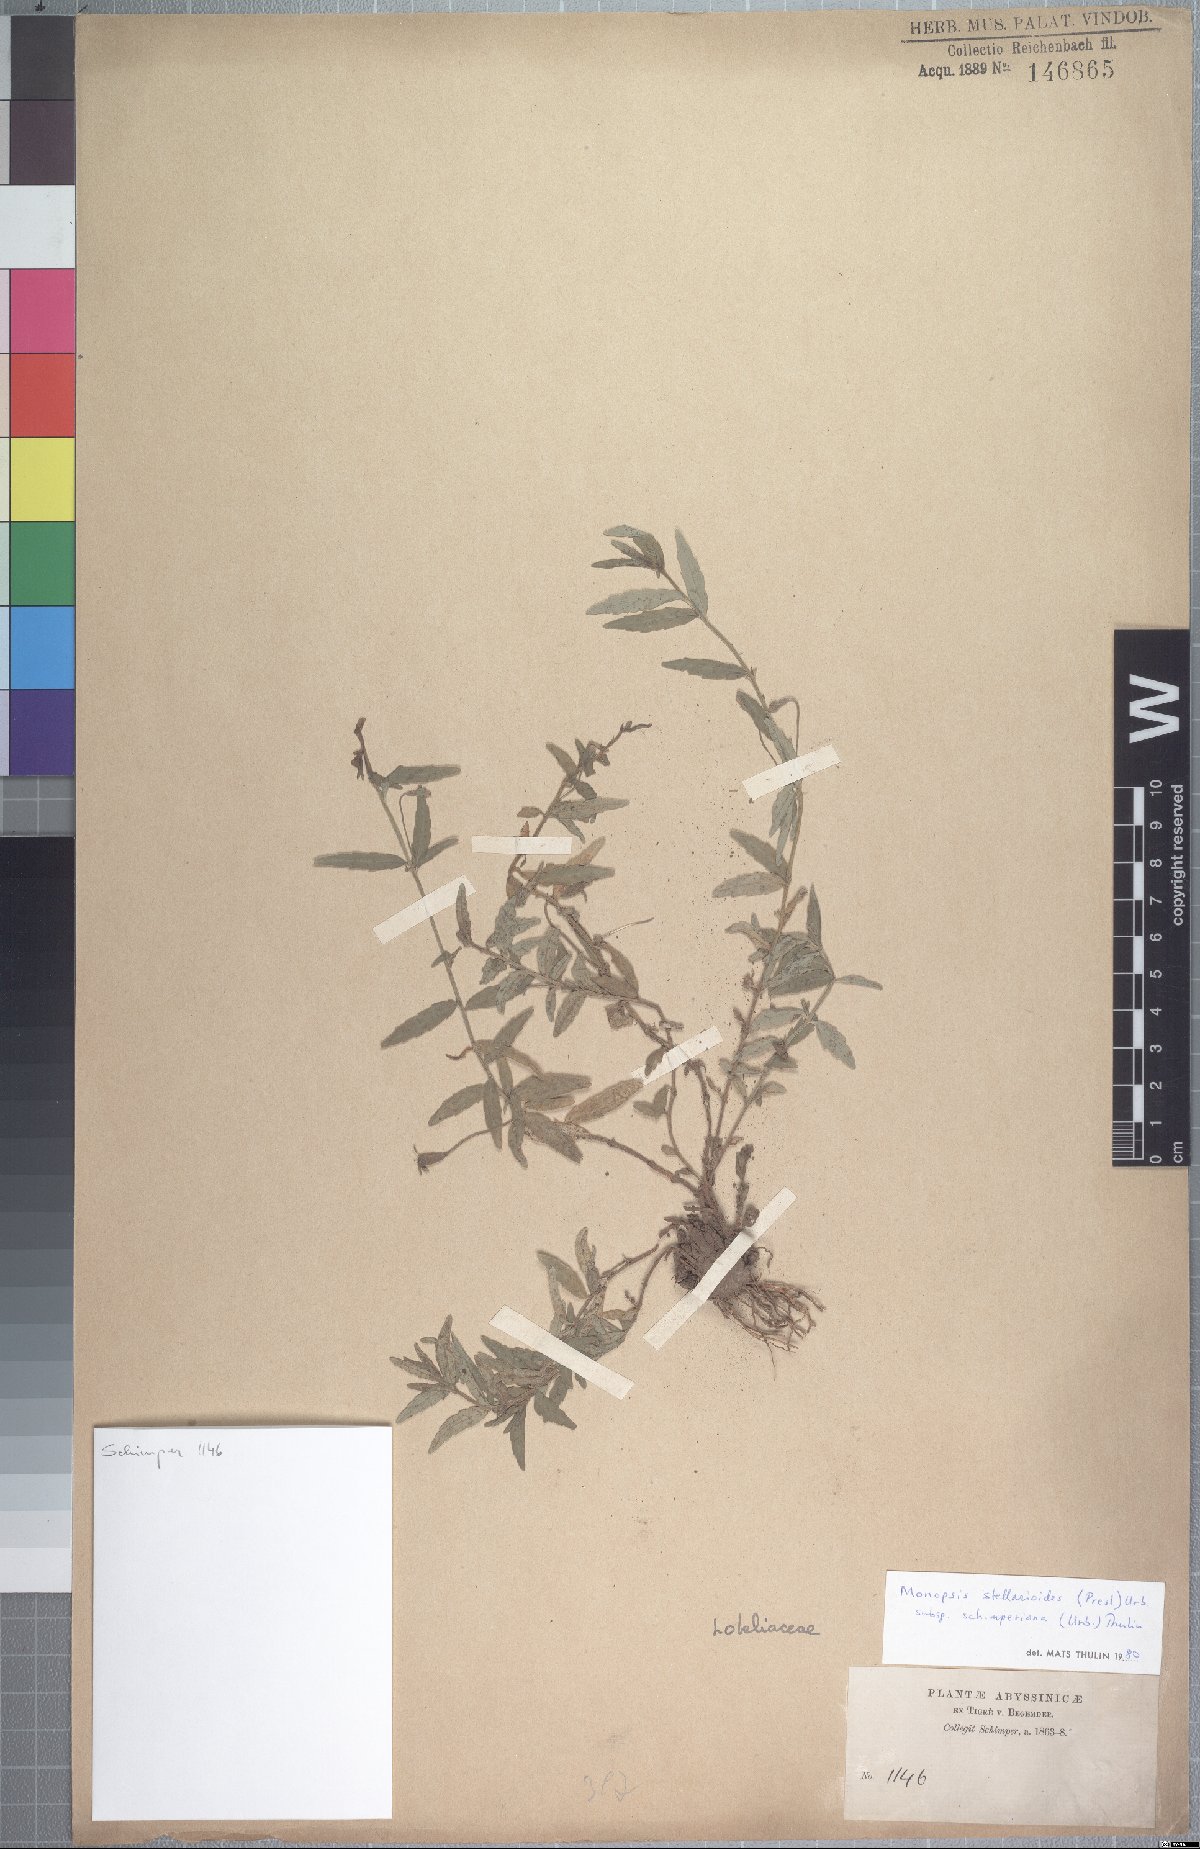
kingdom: Plantae
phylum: Tracheophyta
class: Magnoliopsida
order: Asterales
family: Campanulaceae
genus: Monopsis
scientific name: Monopsis stellarioides
